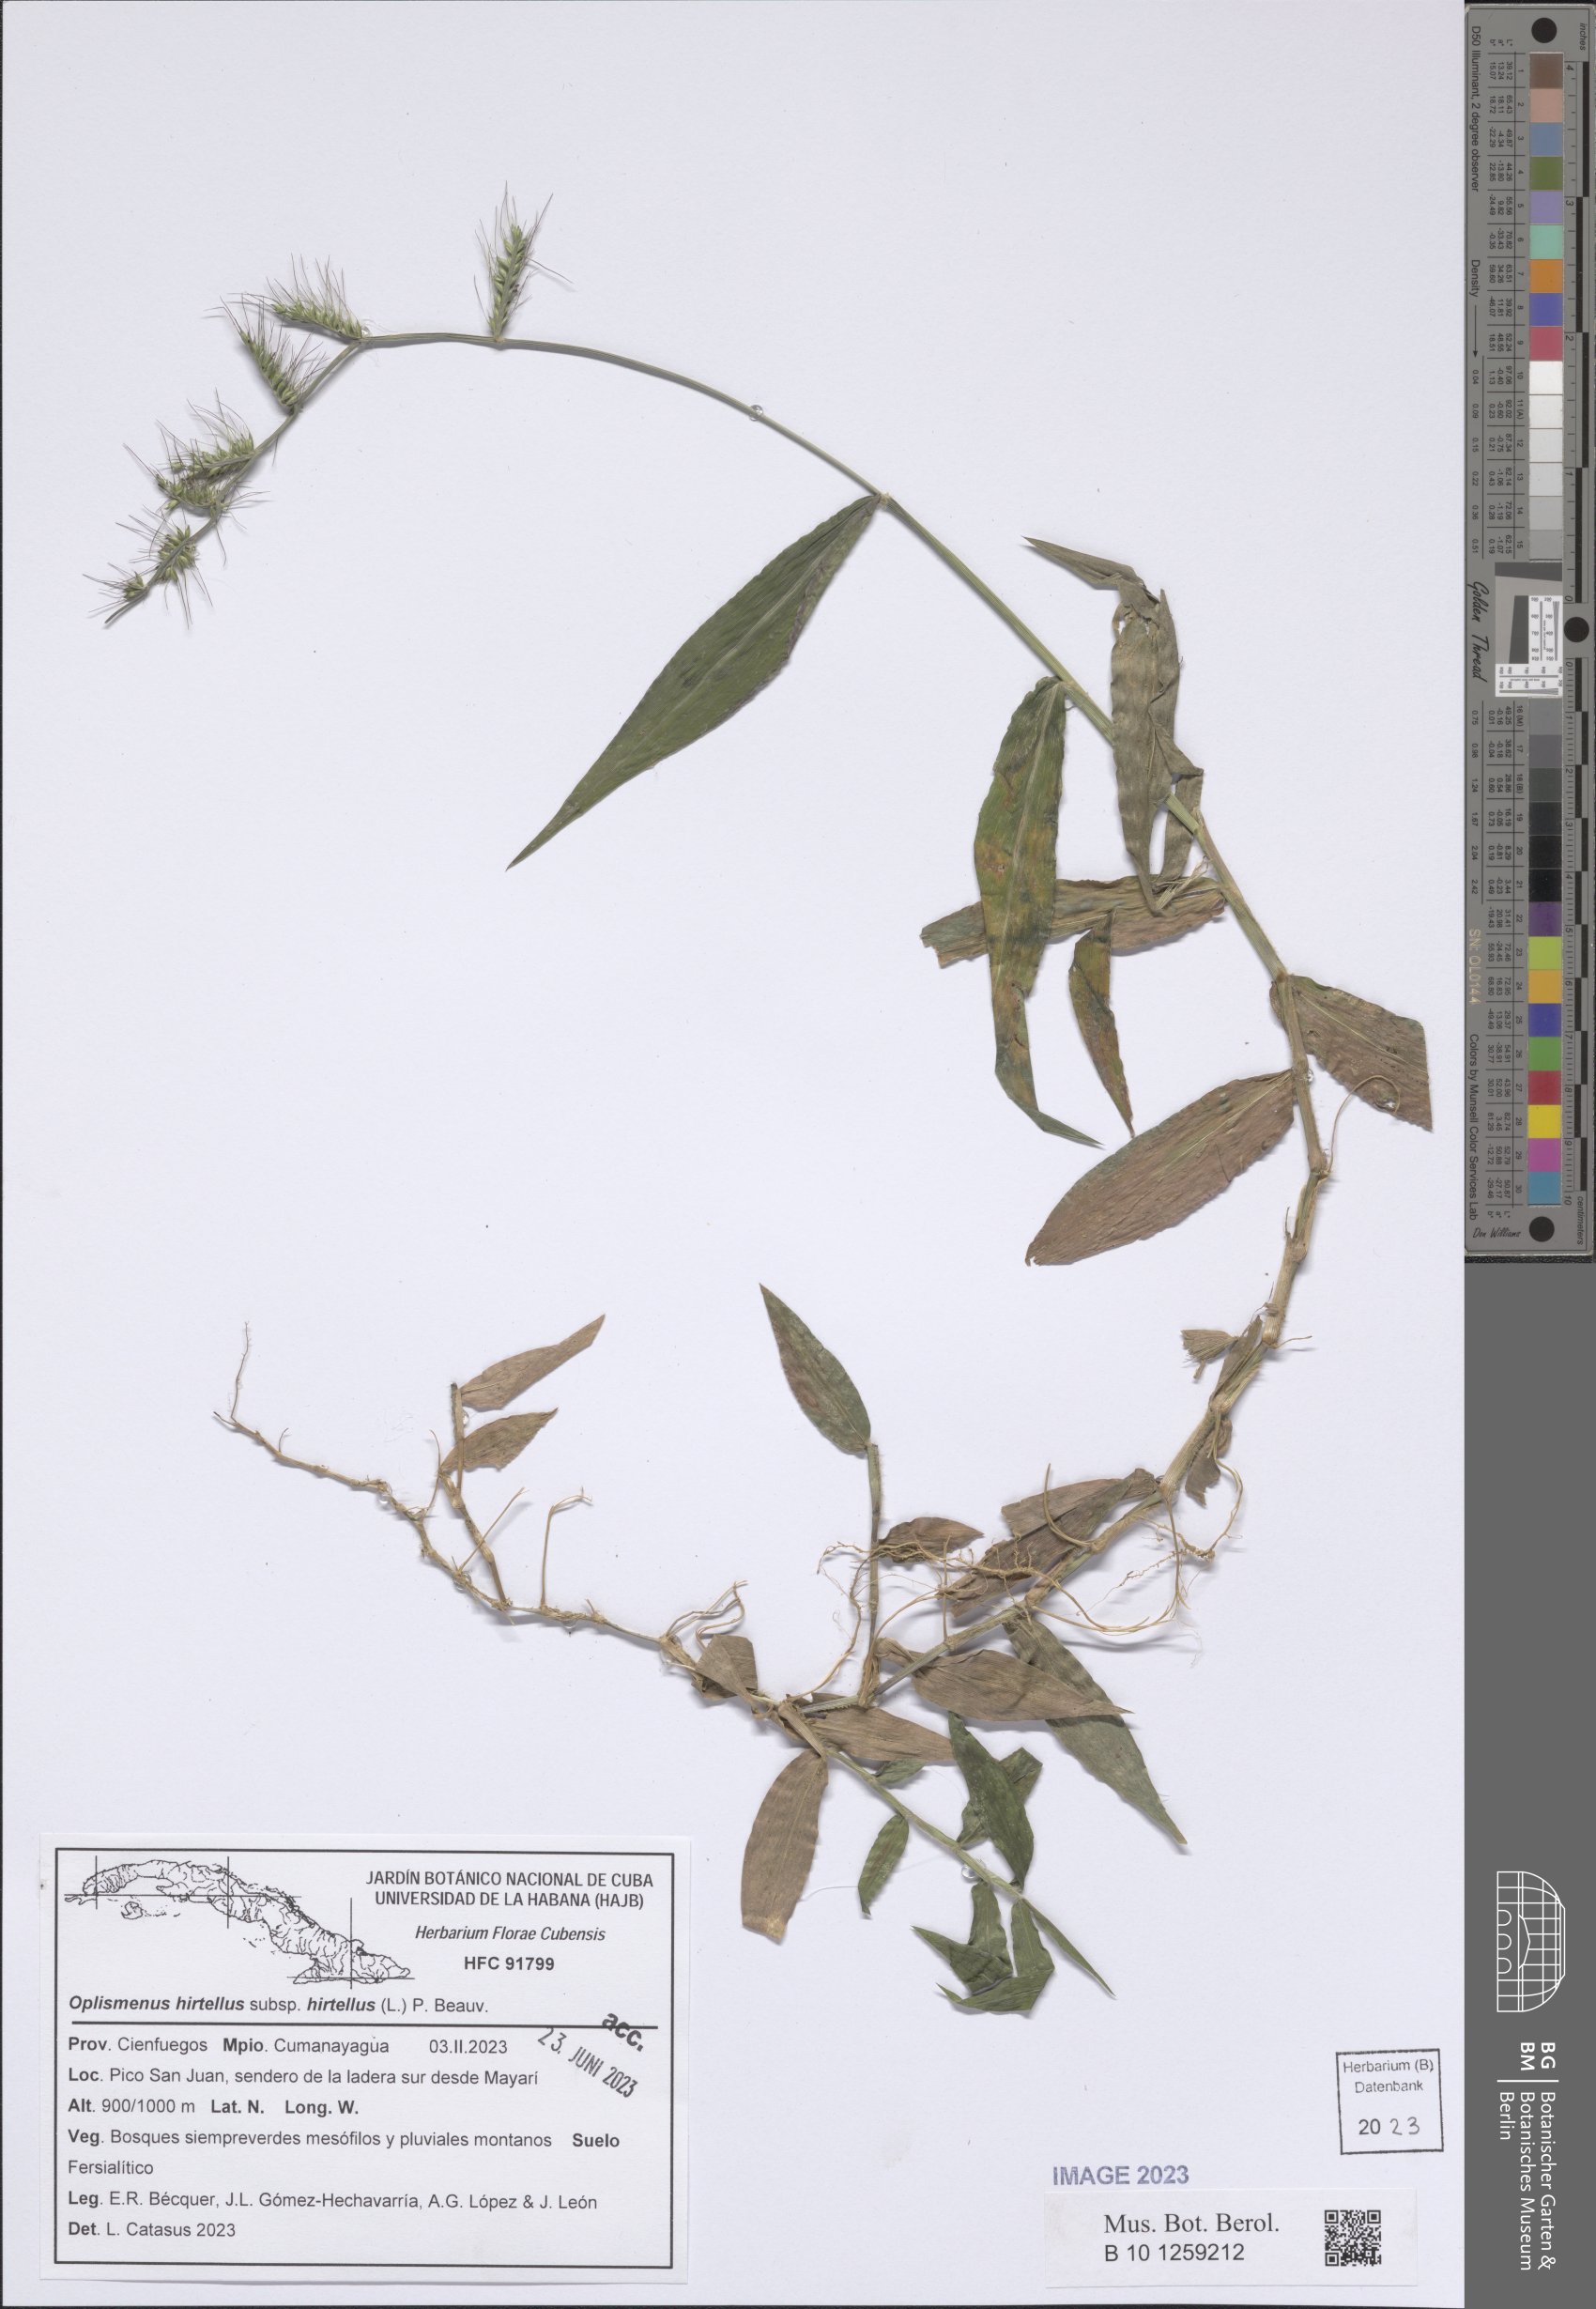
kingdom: Plantae
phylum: Tracheophyta
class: Liliopsida
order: Poales
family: Poaceae
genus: Oplismenus
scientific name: Oplismenus hirtellus
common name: Basketgrass
